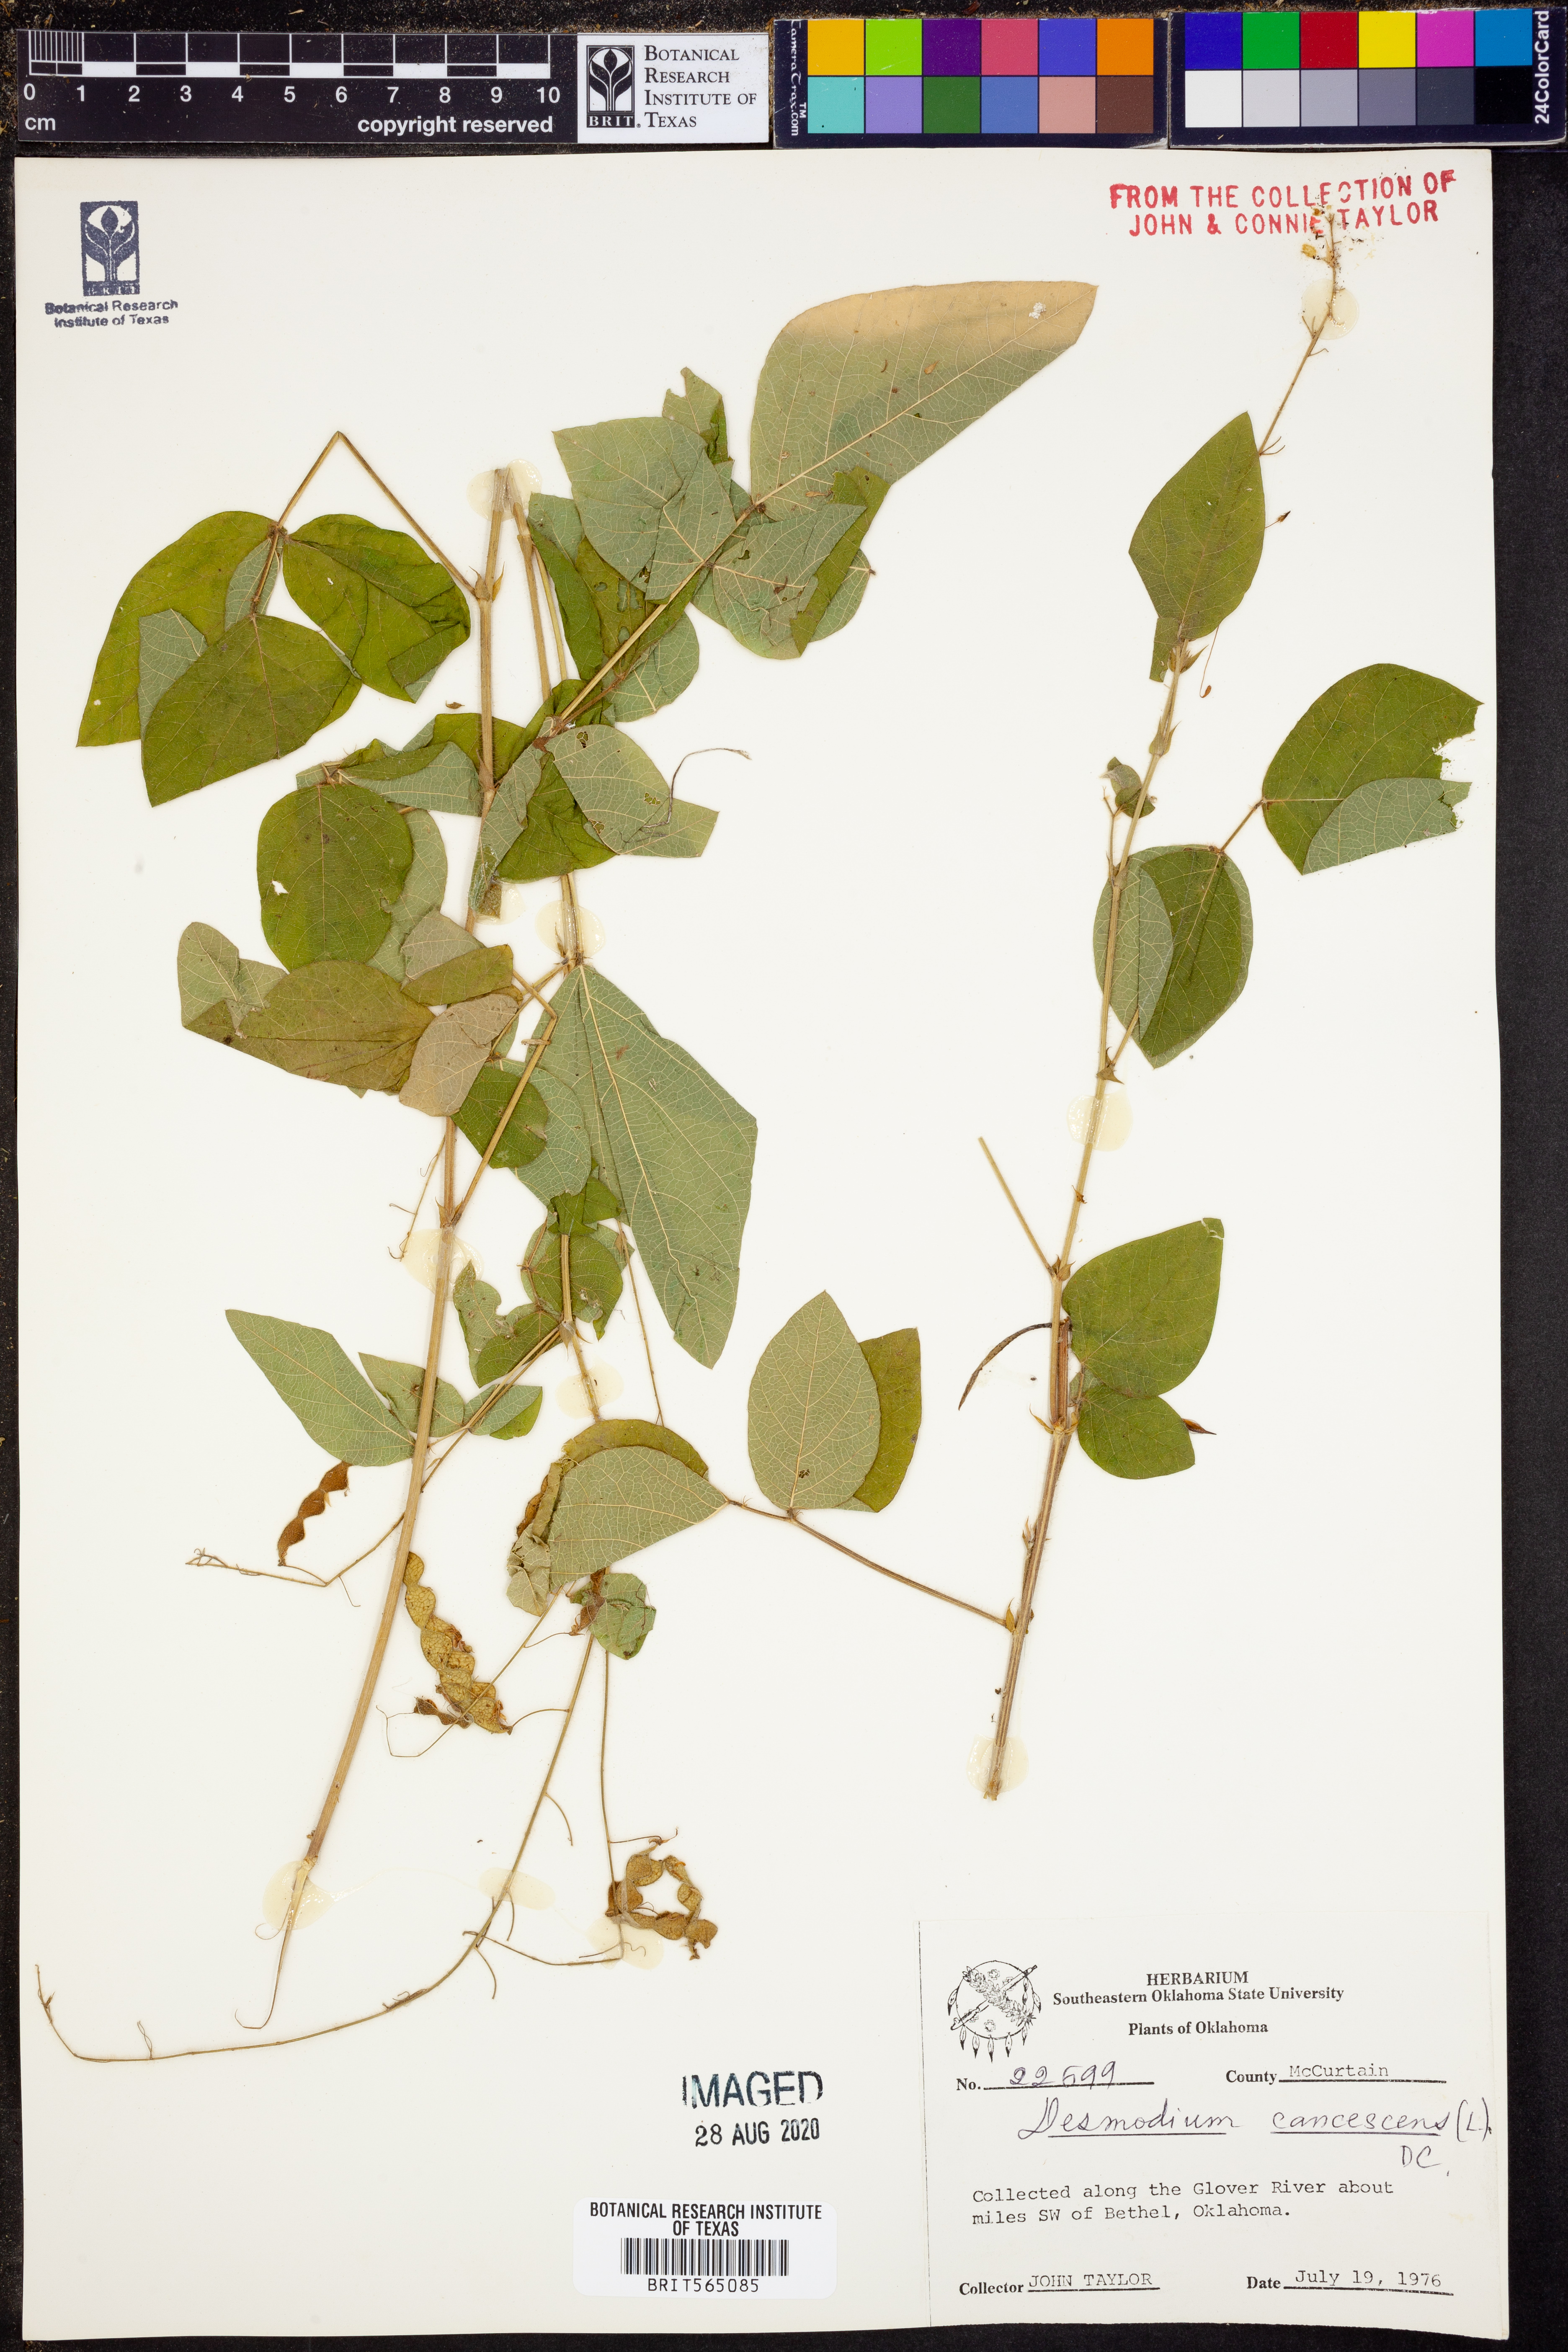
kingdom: Plantae
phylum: Tracheophyta
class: Magnoliopsida
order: Fabales
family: Fabaceae
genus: Desmodium
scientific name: Desmodium canescens
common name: Hoary tick-clover
